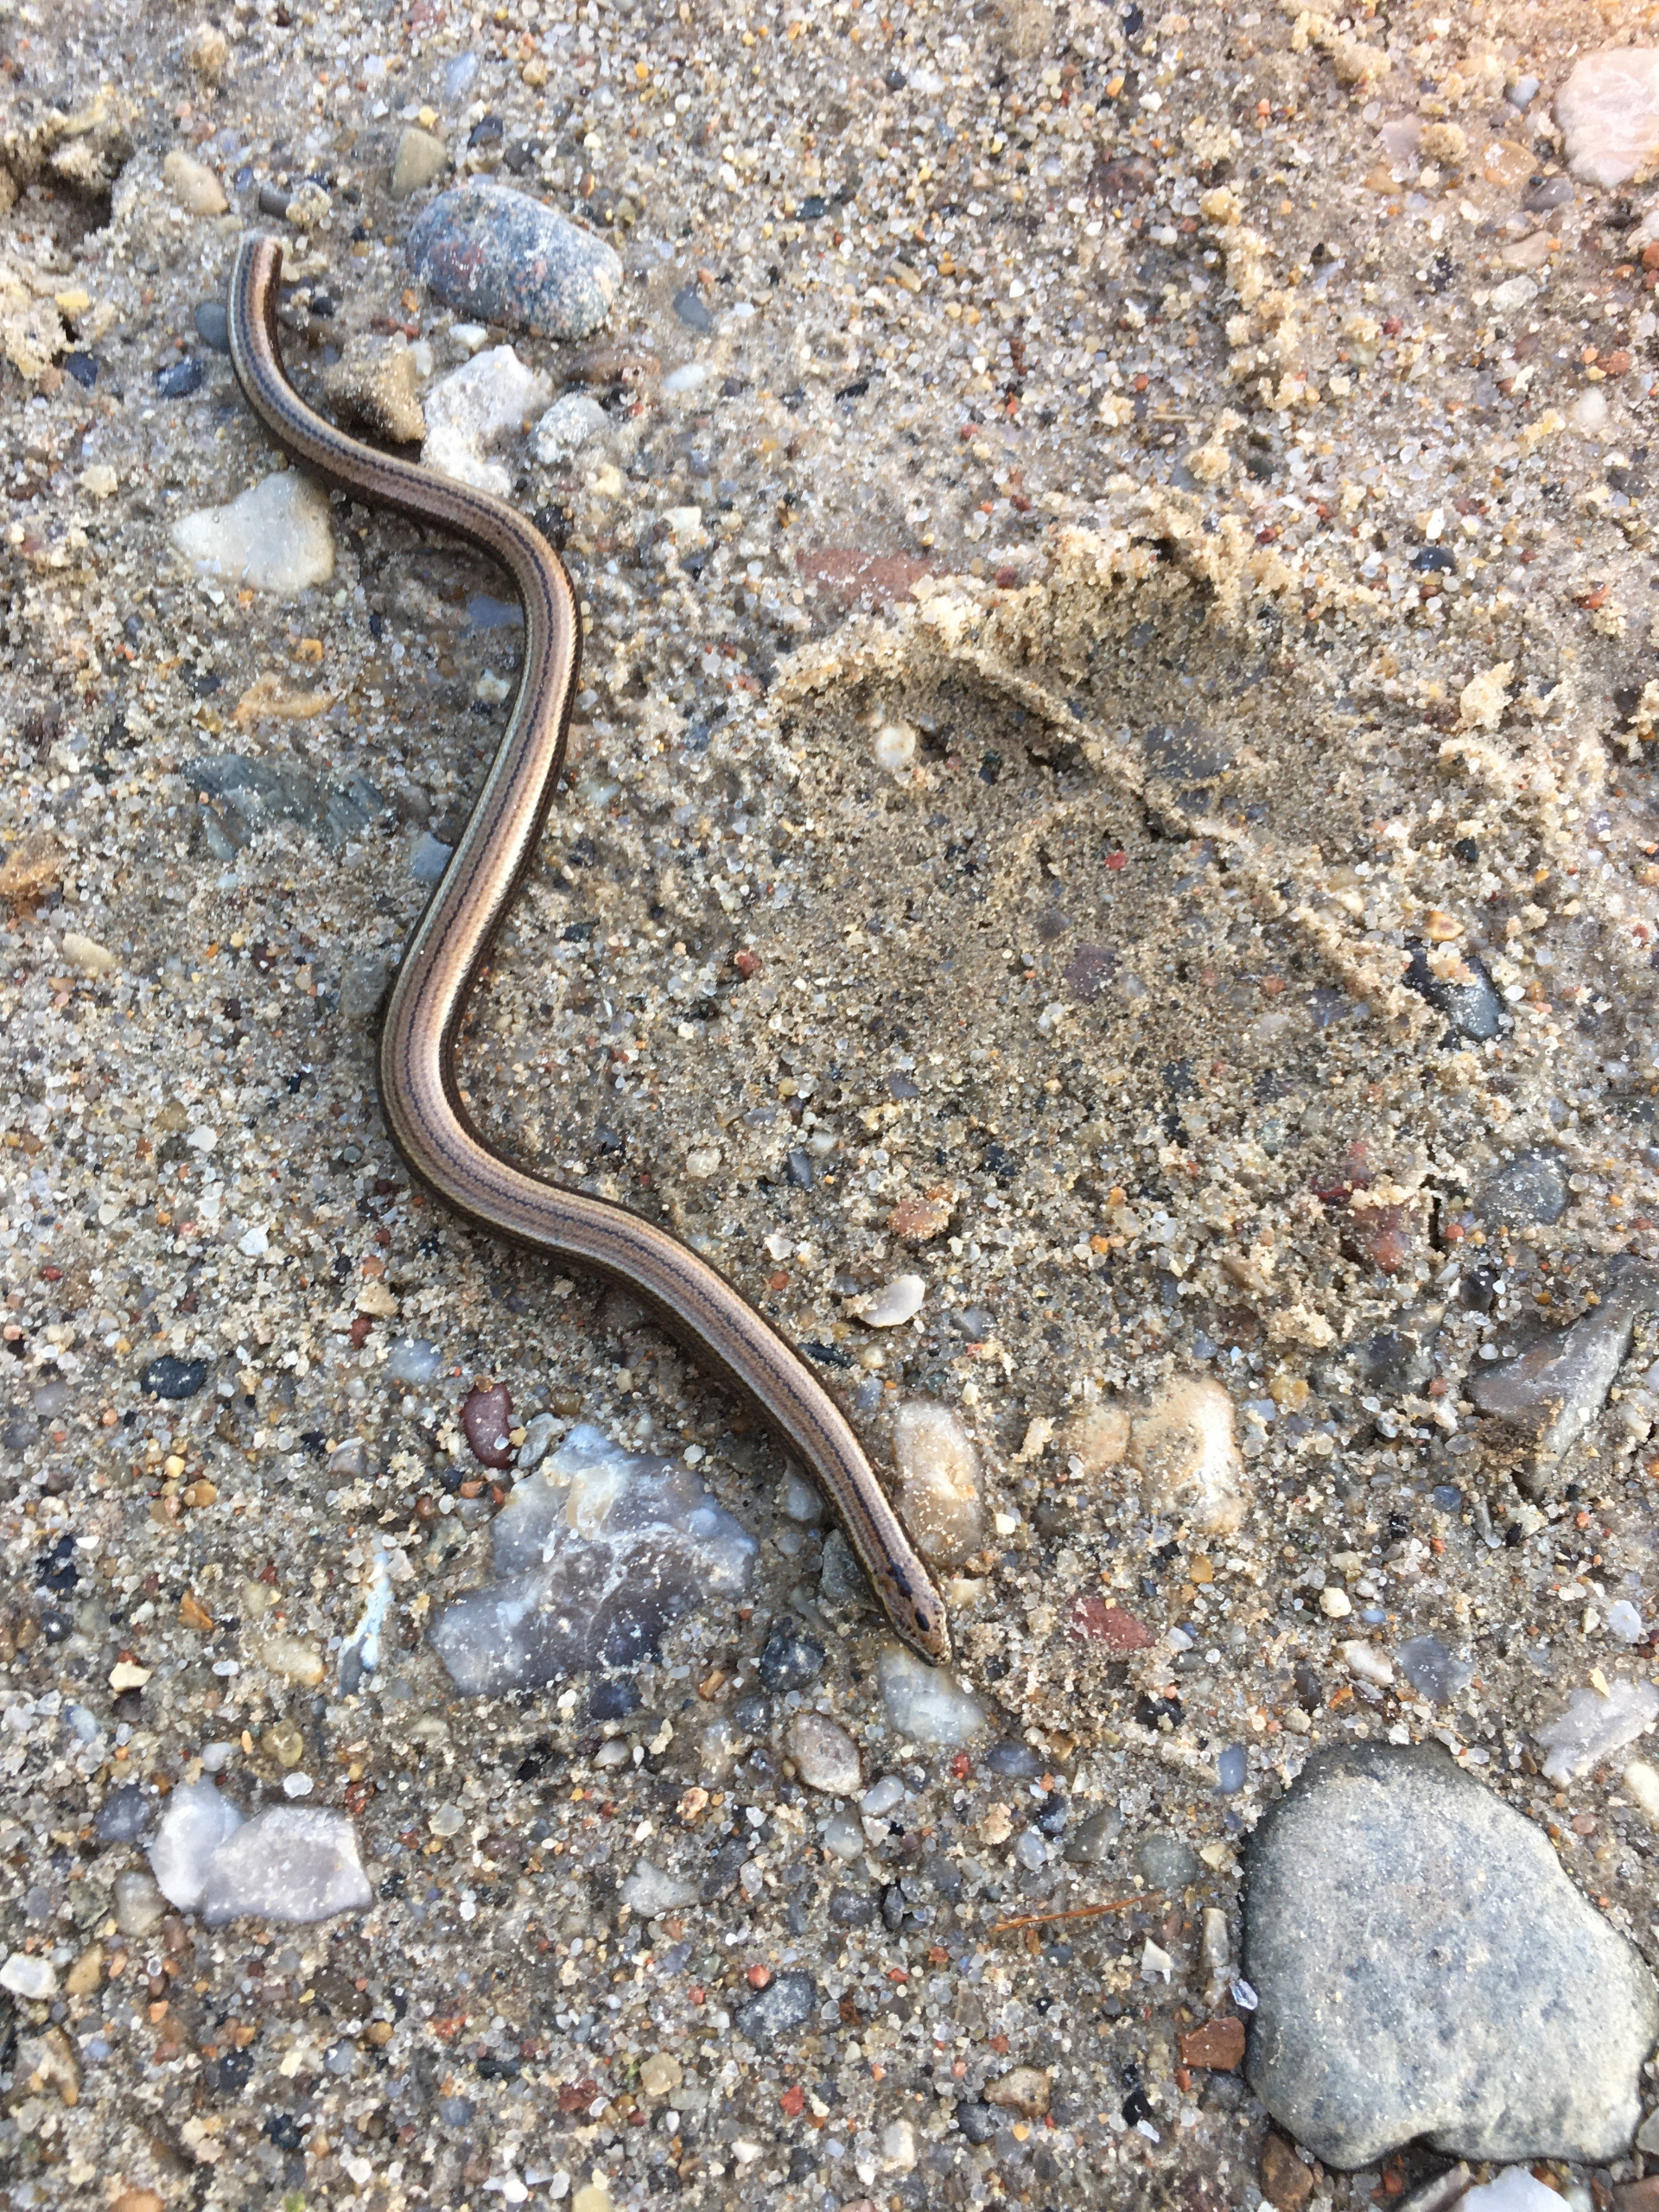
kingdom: Animalia
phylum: Chordata
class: Squamata
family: Anguidae
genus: Anguis
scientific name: Anguis fragilis
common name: Stålorm
